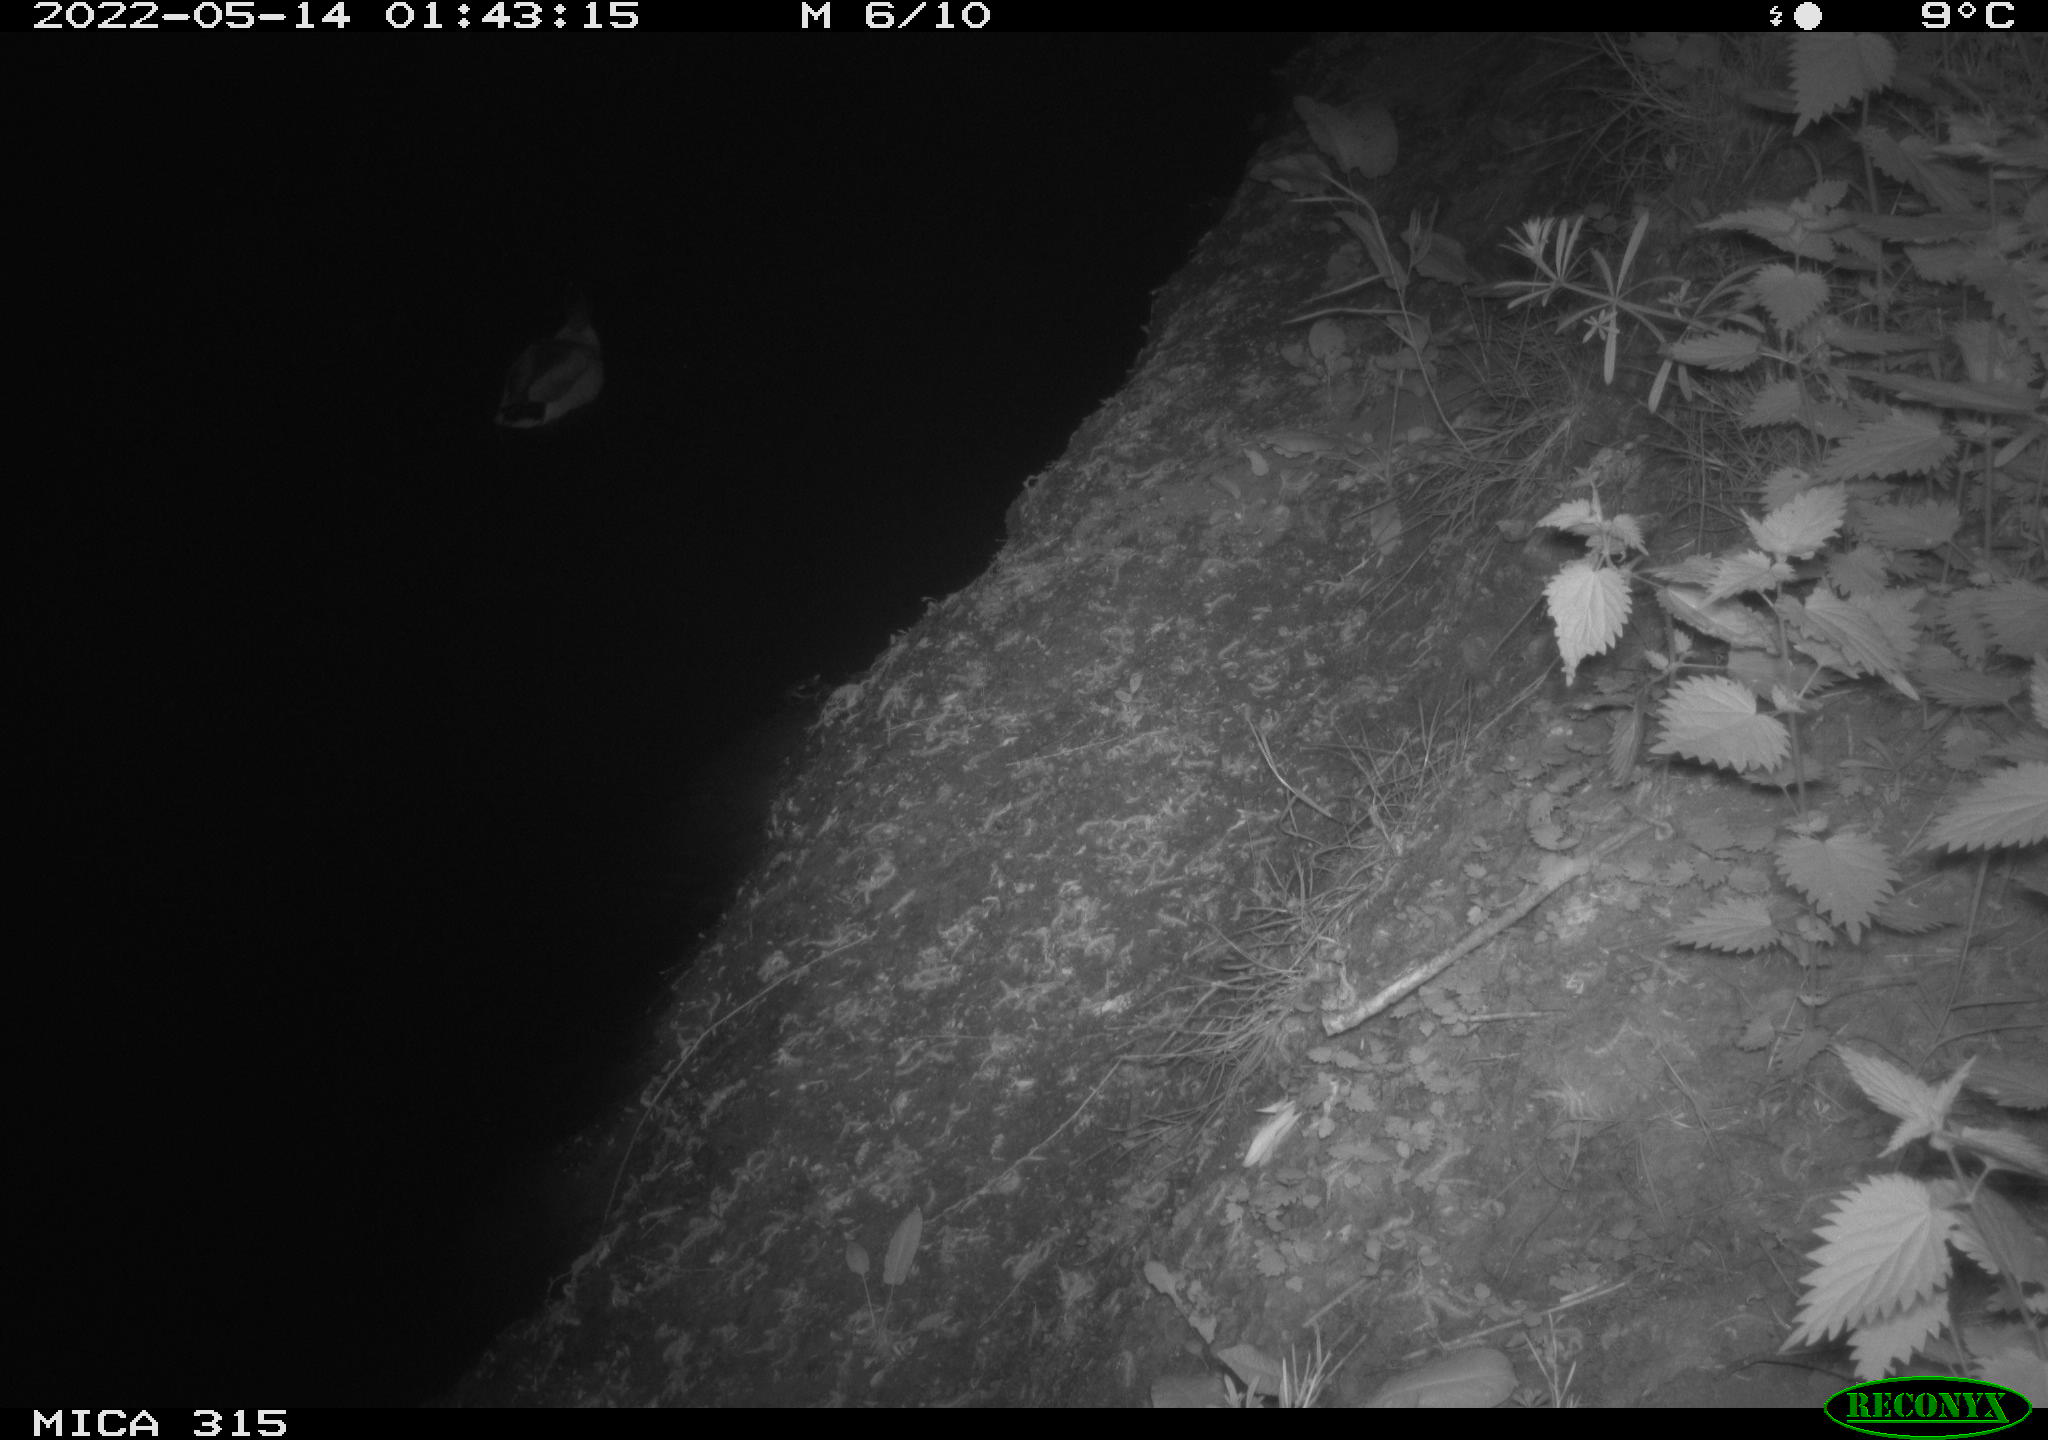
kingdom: Animalia
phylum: Chordata
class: Aves
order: Anseriformes
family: Anatidae
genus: Anas
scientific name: Anas
